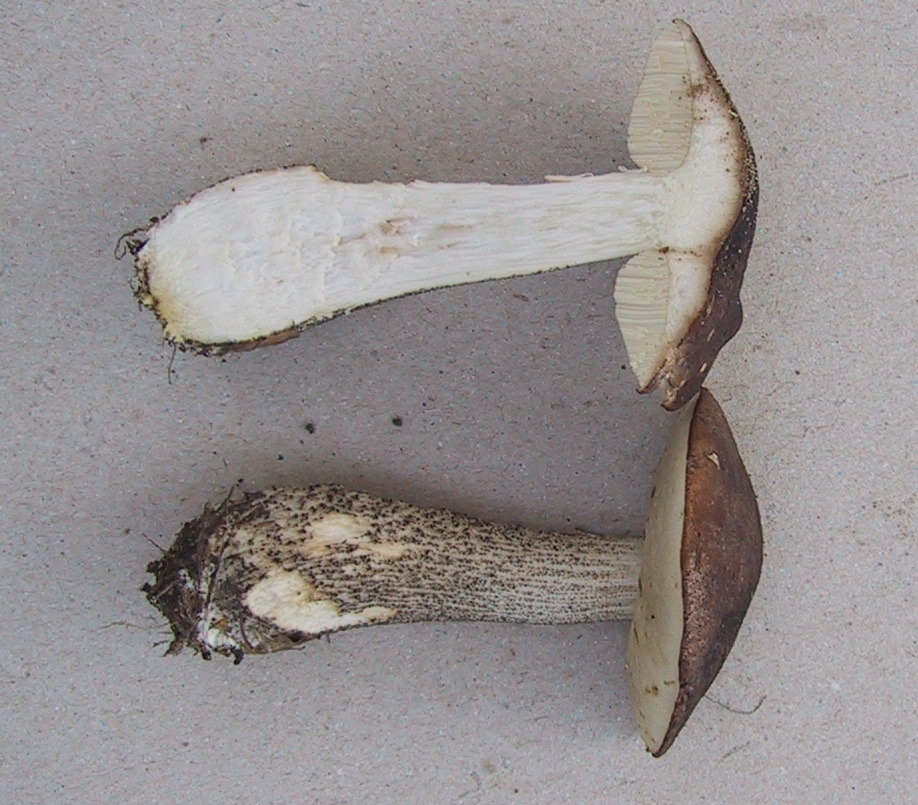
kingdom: Fungi
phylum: Basidiomycota
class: Agaricomycetes
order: Boletales
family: Boletaceae
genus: Leccinum
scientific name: Leccinum scabrum
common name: brun skælrørhat
